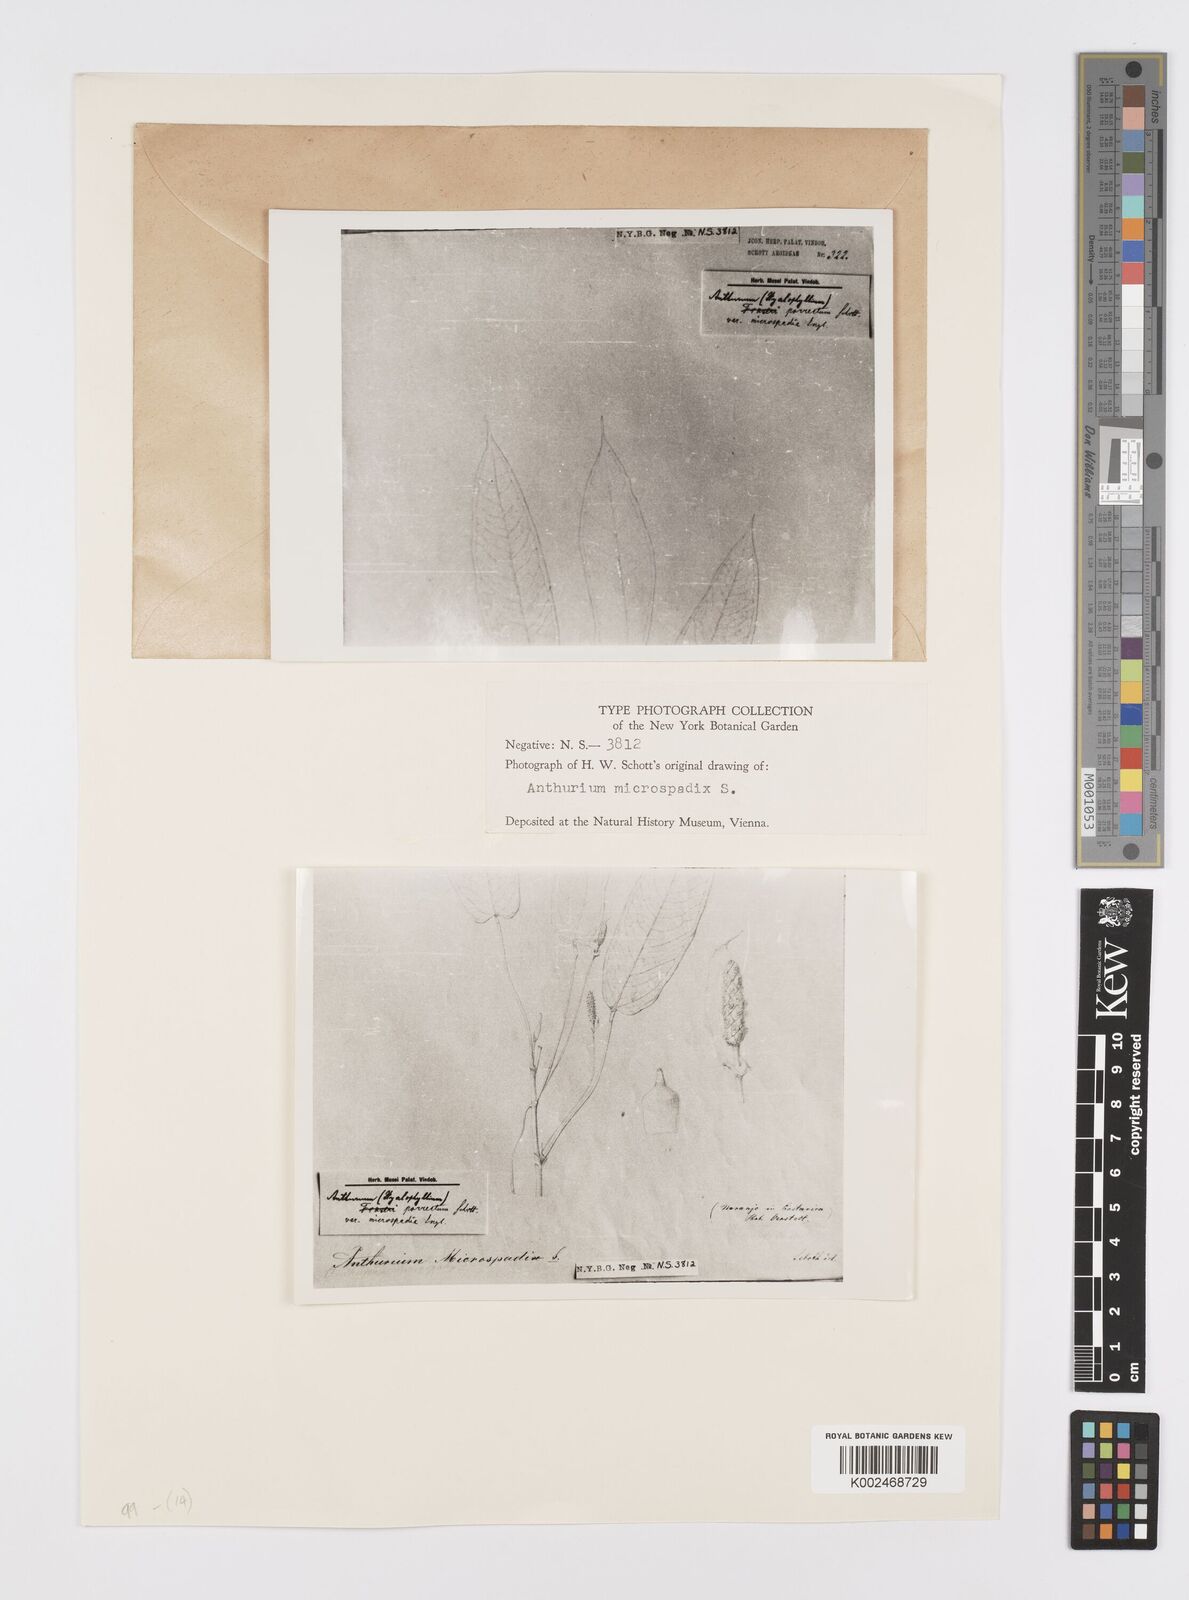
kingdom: Plantae
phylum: Tracheophyta
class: Liliopsida
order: Alismatales
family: Araceae
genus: Anthurium
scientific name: Anthurium microspadix
